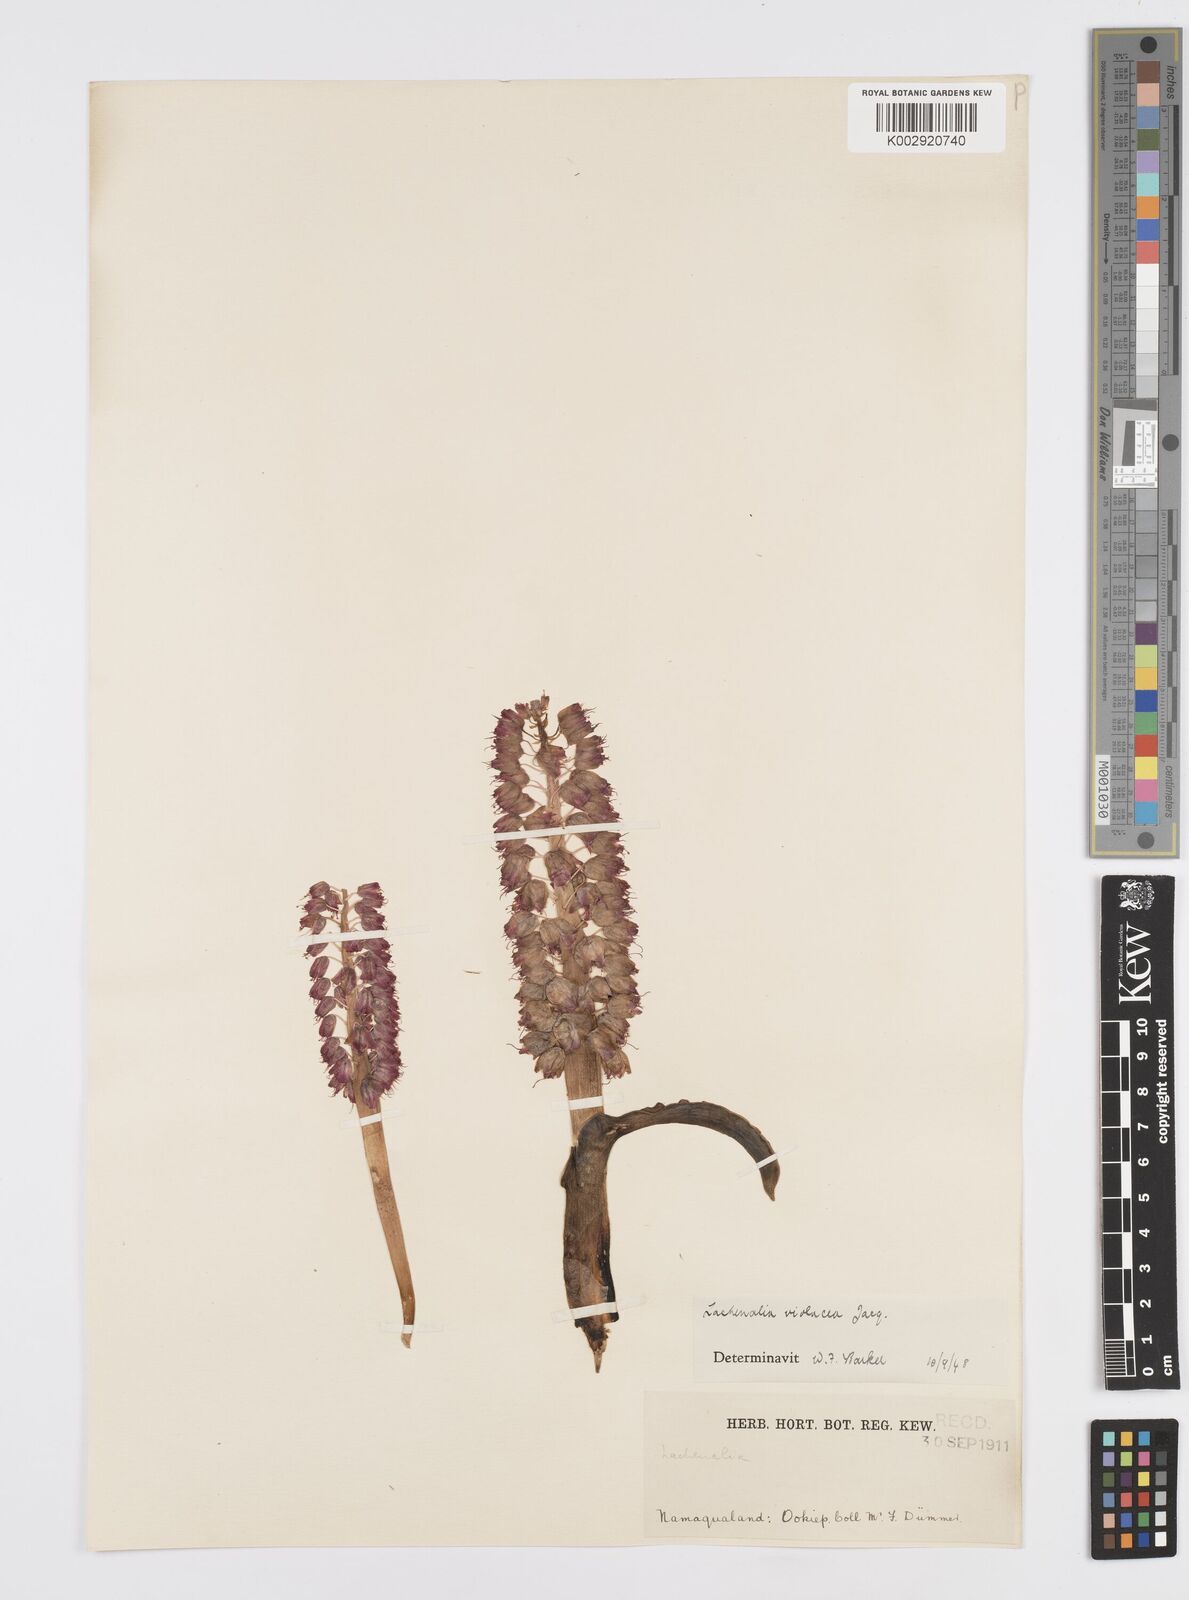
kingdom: Plantae
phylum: Tracheophyta
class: Liliopsida
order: Asparagales
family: Asparagaceae
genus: Lachenalia
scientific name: Lachenalia violacea
